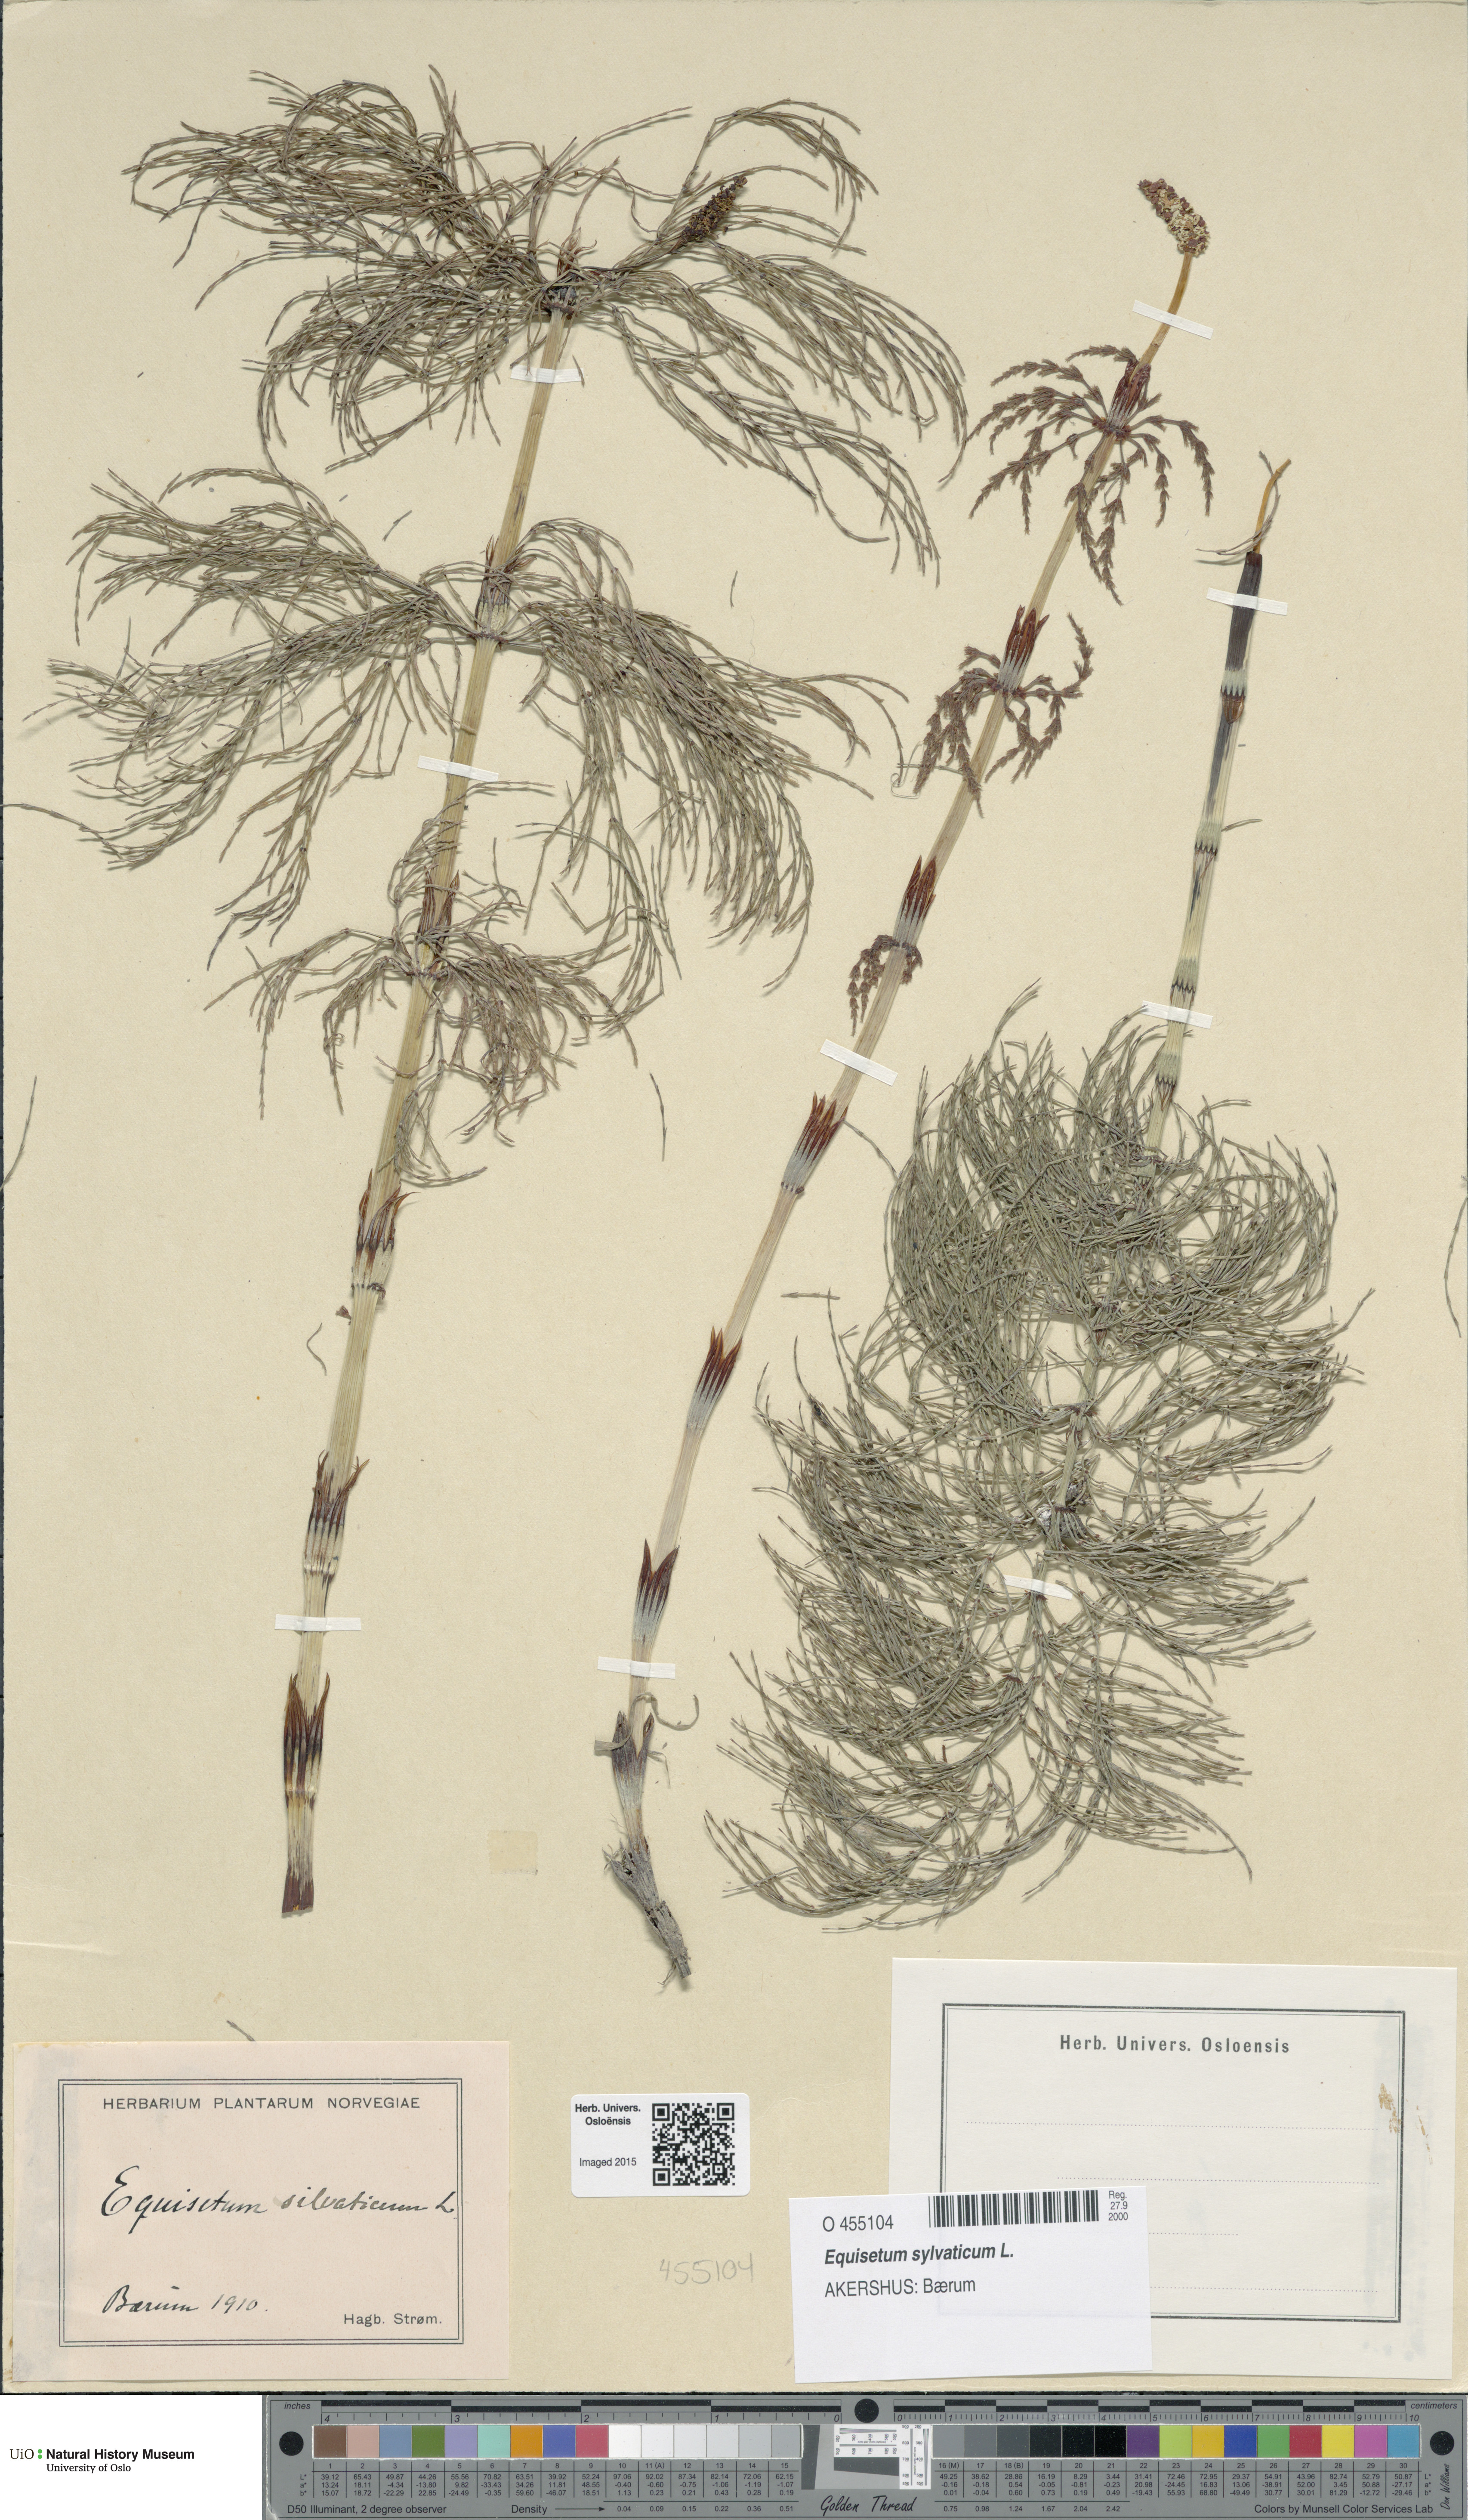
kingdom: Plantae
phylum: Tracheophyta
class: Polypodiopsida
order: Equisetales
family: Equisetaceae
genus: Equisetum
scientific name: Equisetum sylvaticum
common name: Wood horsetail
